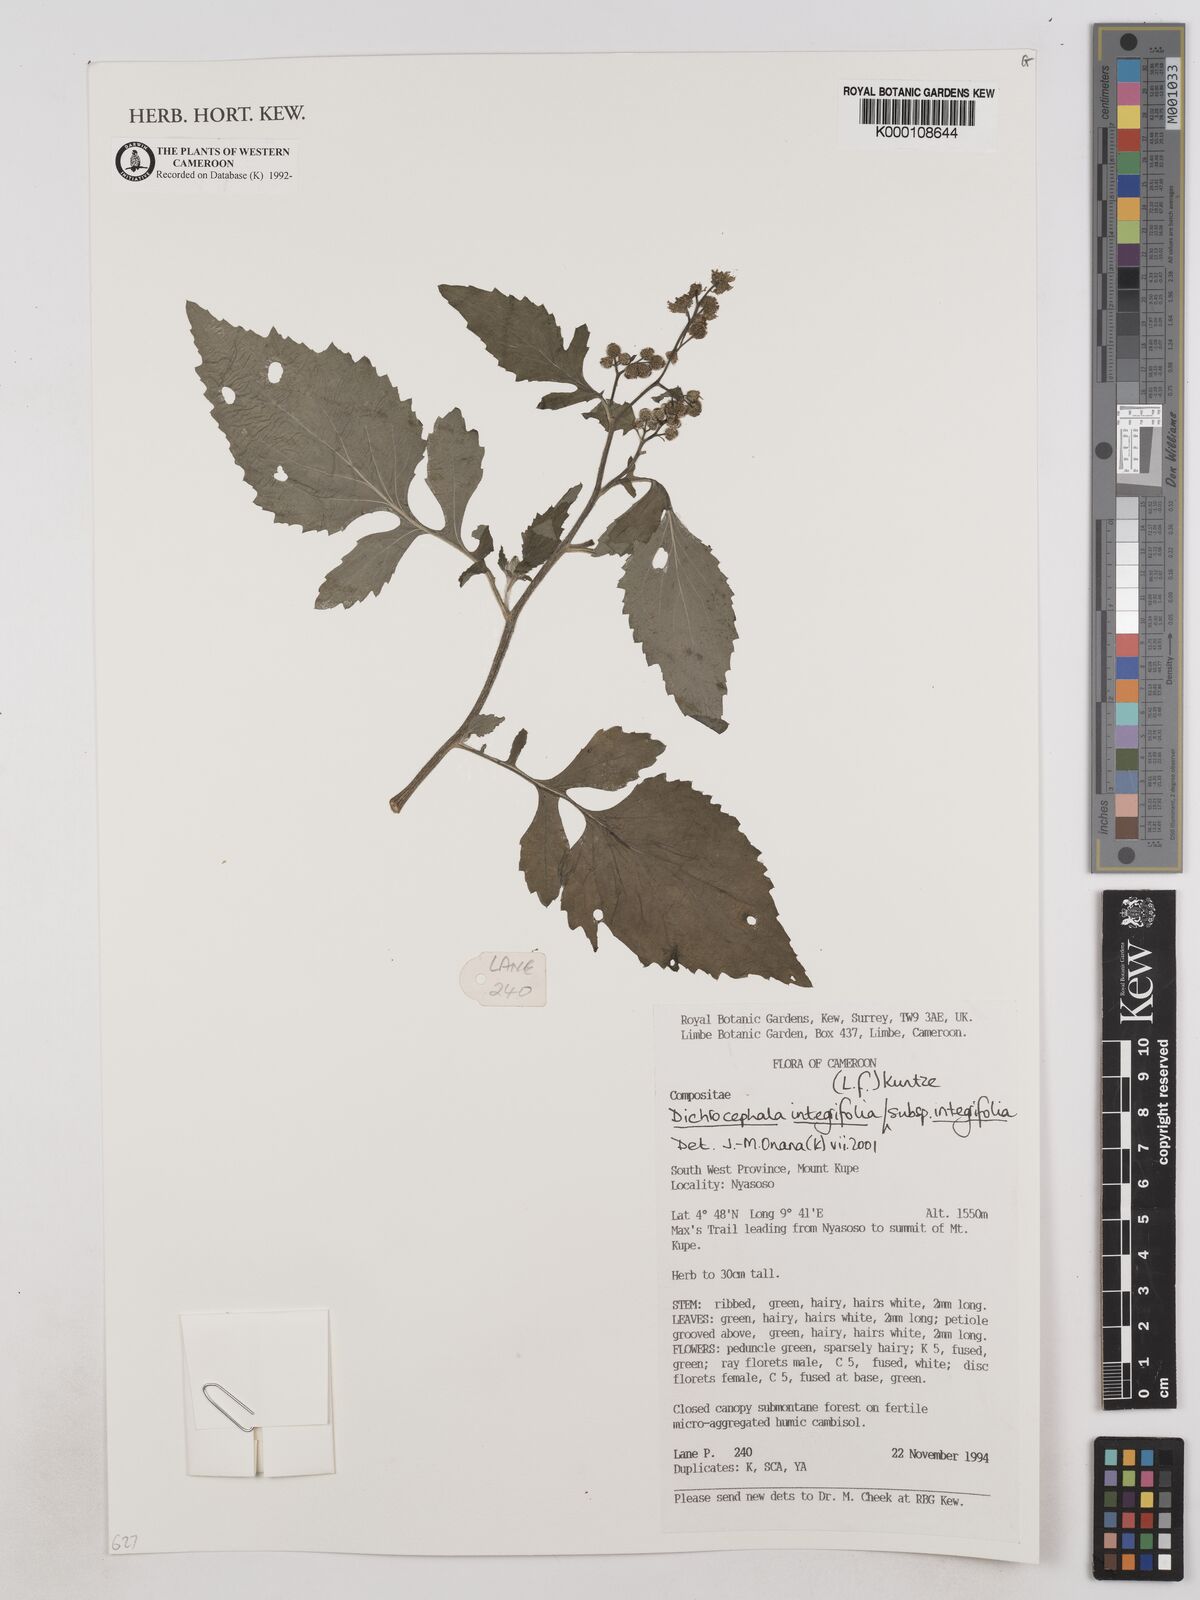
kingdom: Plantae
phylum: Tracheophyta
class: Magnoliopsida
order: Asterales
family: Asteraceae
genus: Dichrocephala
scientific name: Dichrocephala integrifolia
